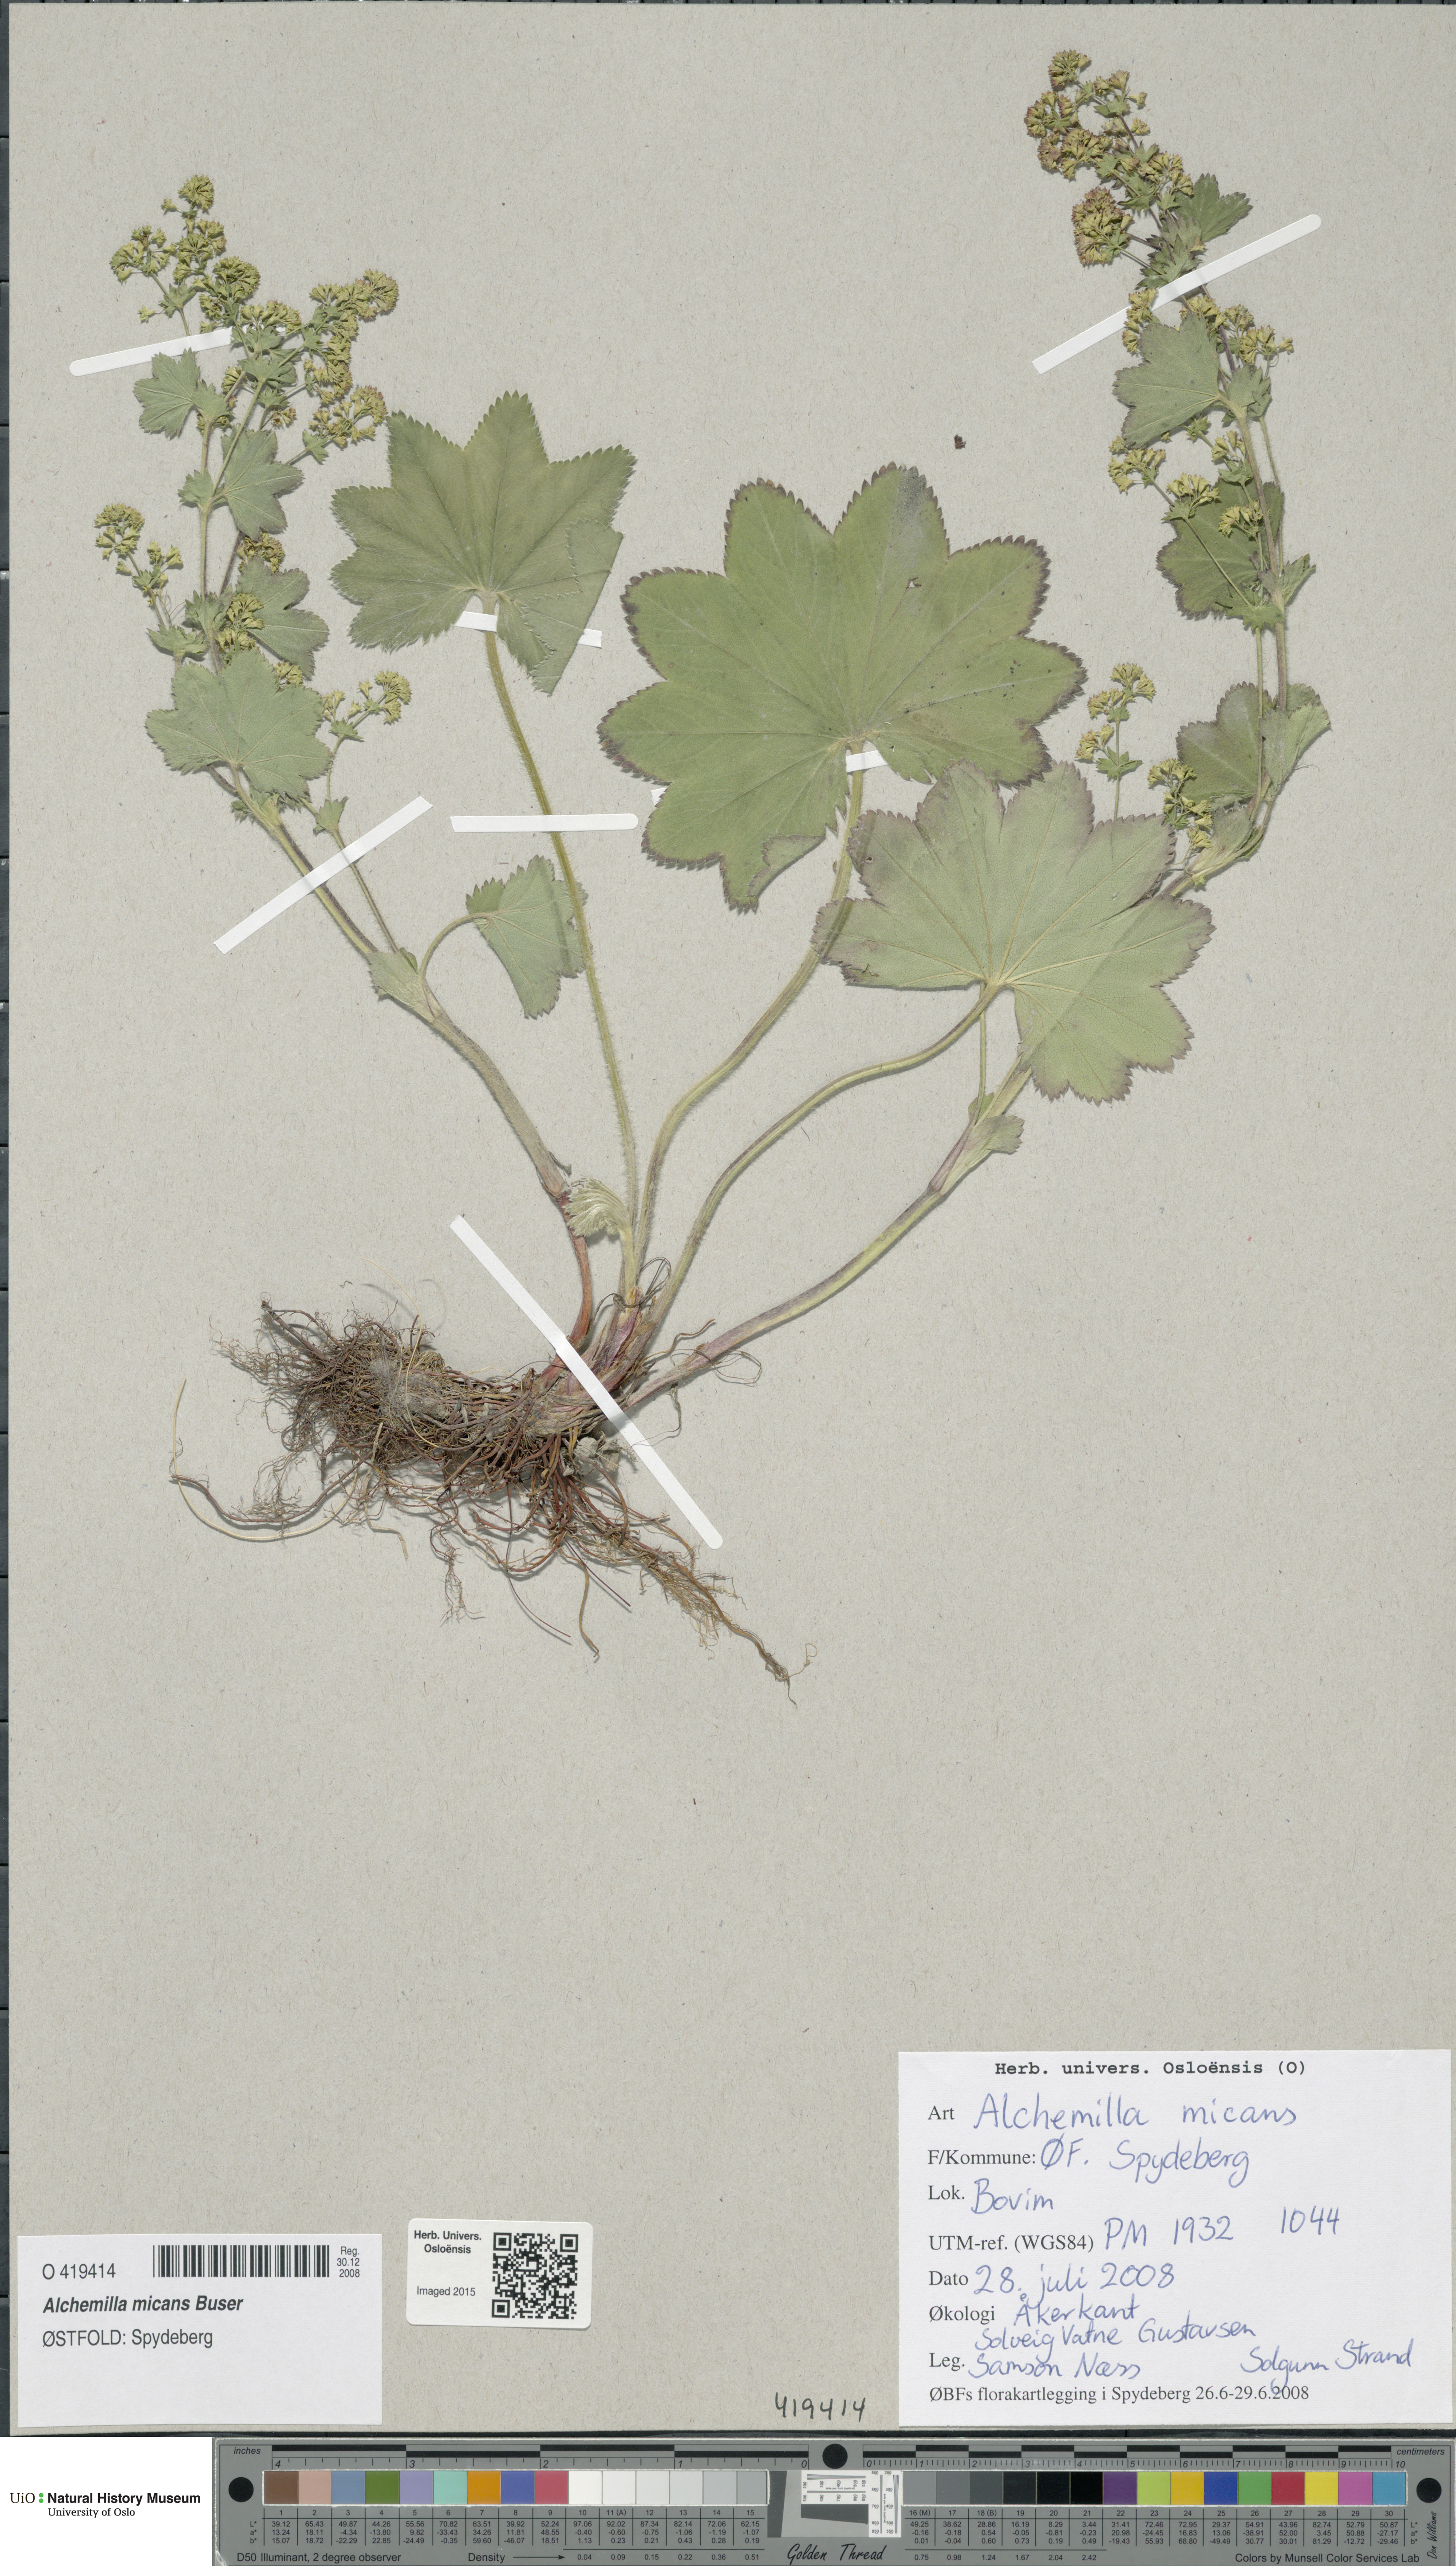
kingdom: Plantae
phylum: Tracheophyta
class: Magnoliopsida
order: Rosales
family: Rosaceae
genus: Alchemilla
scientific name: Alchemilla micans
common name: Gleaming lady's mantle
